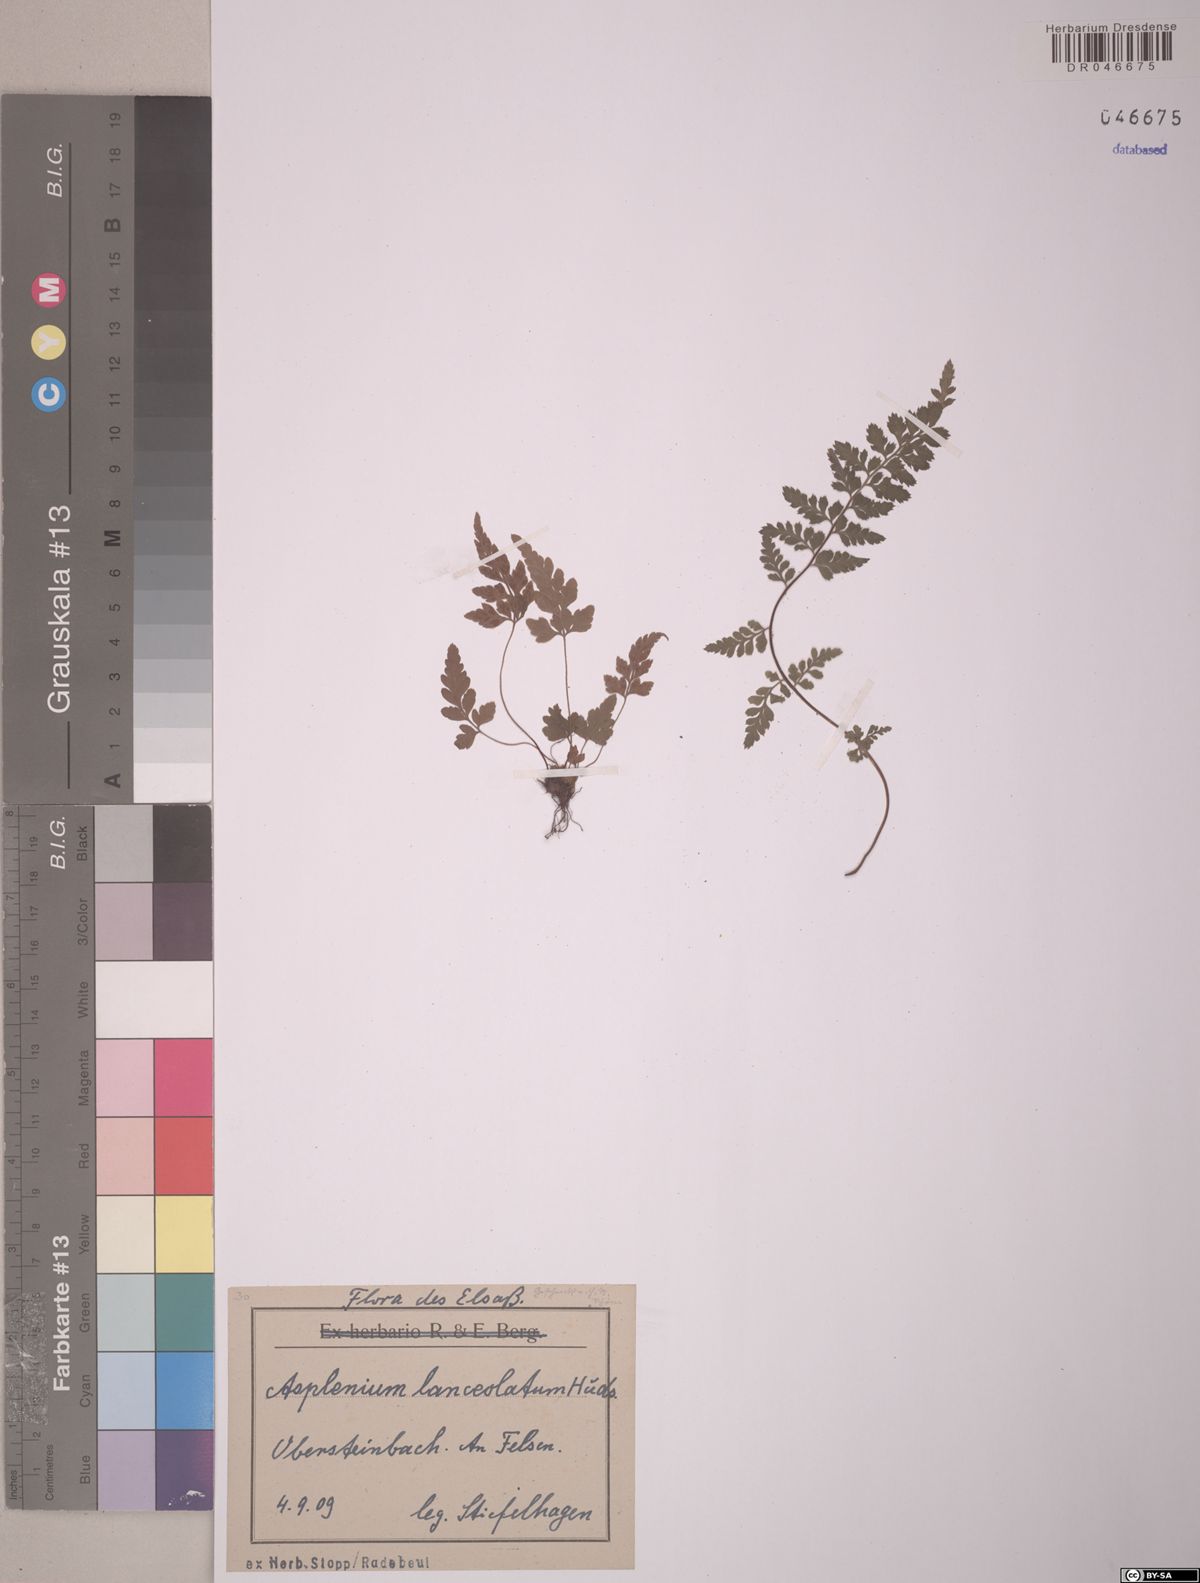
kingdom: Plantae
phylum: Tracheophyta
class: Polypodiopsida
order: Polypodiales
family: Aspleniaceae
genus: Asplenium
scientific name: Asplenium aethiopicum
